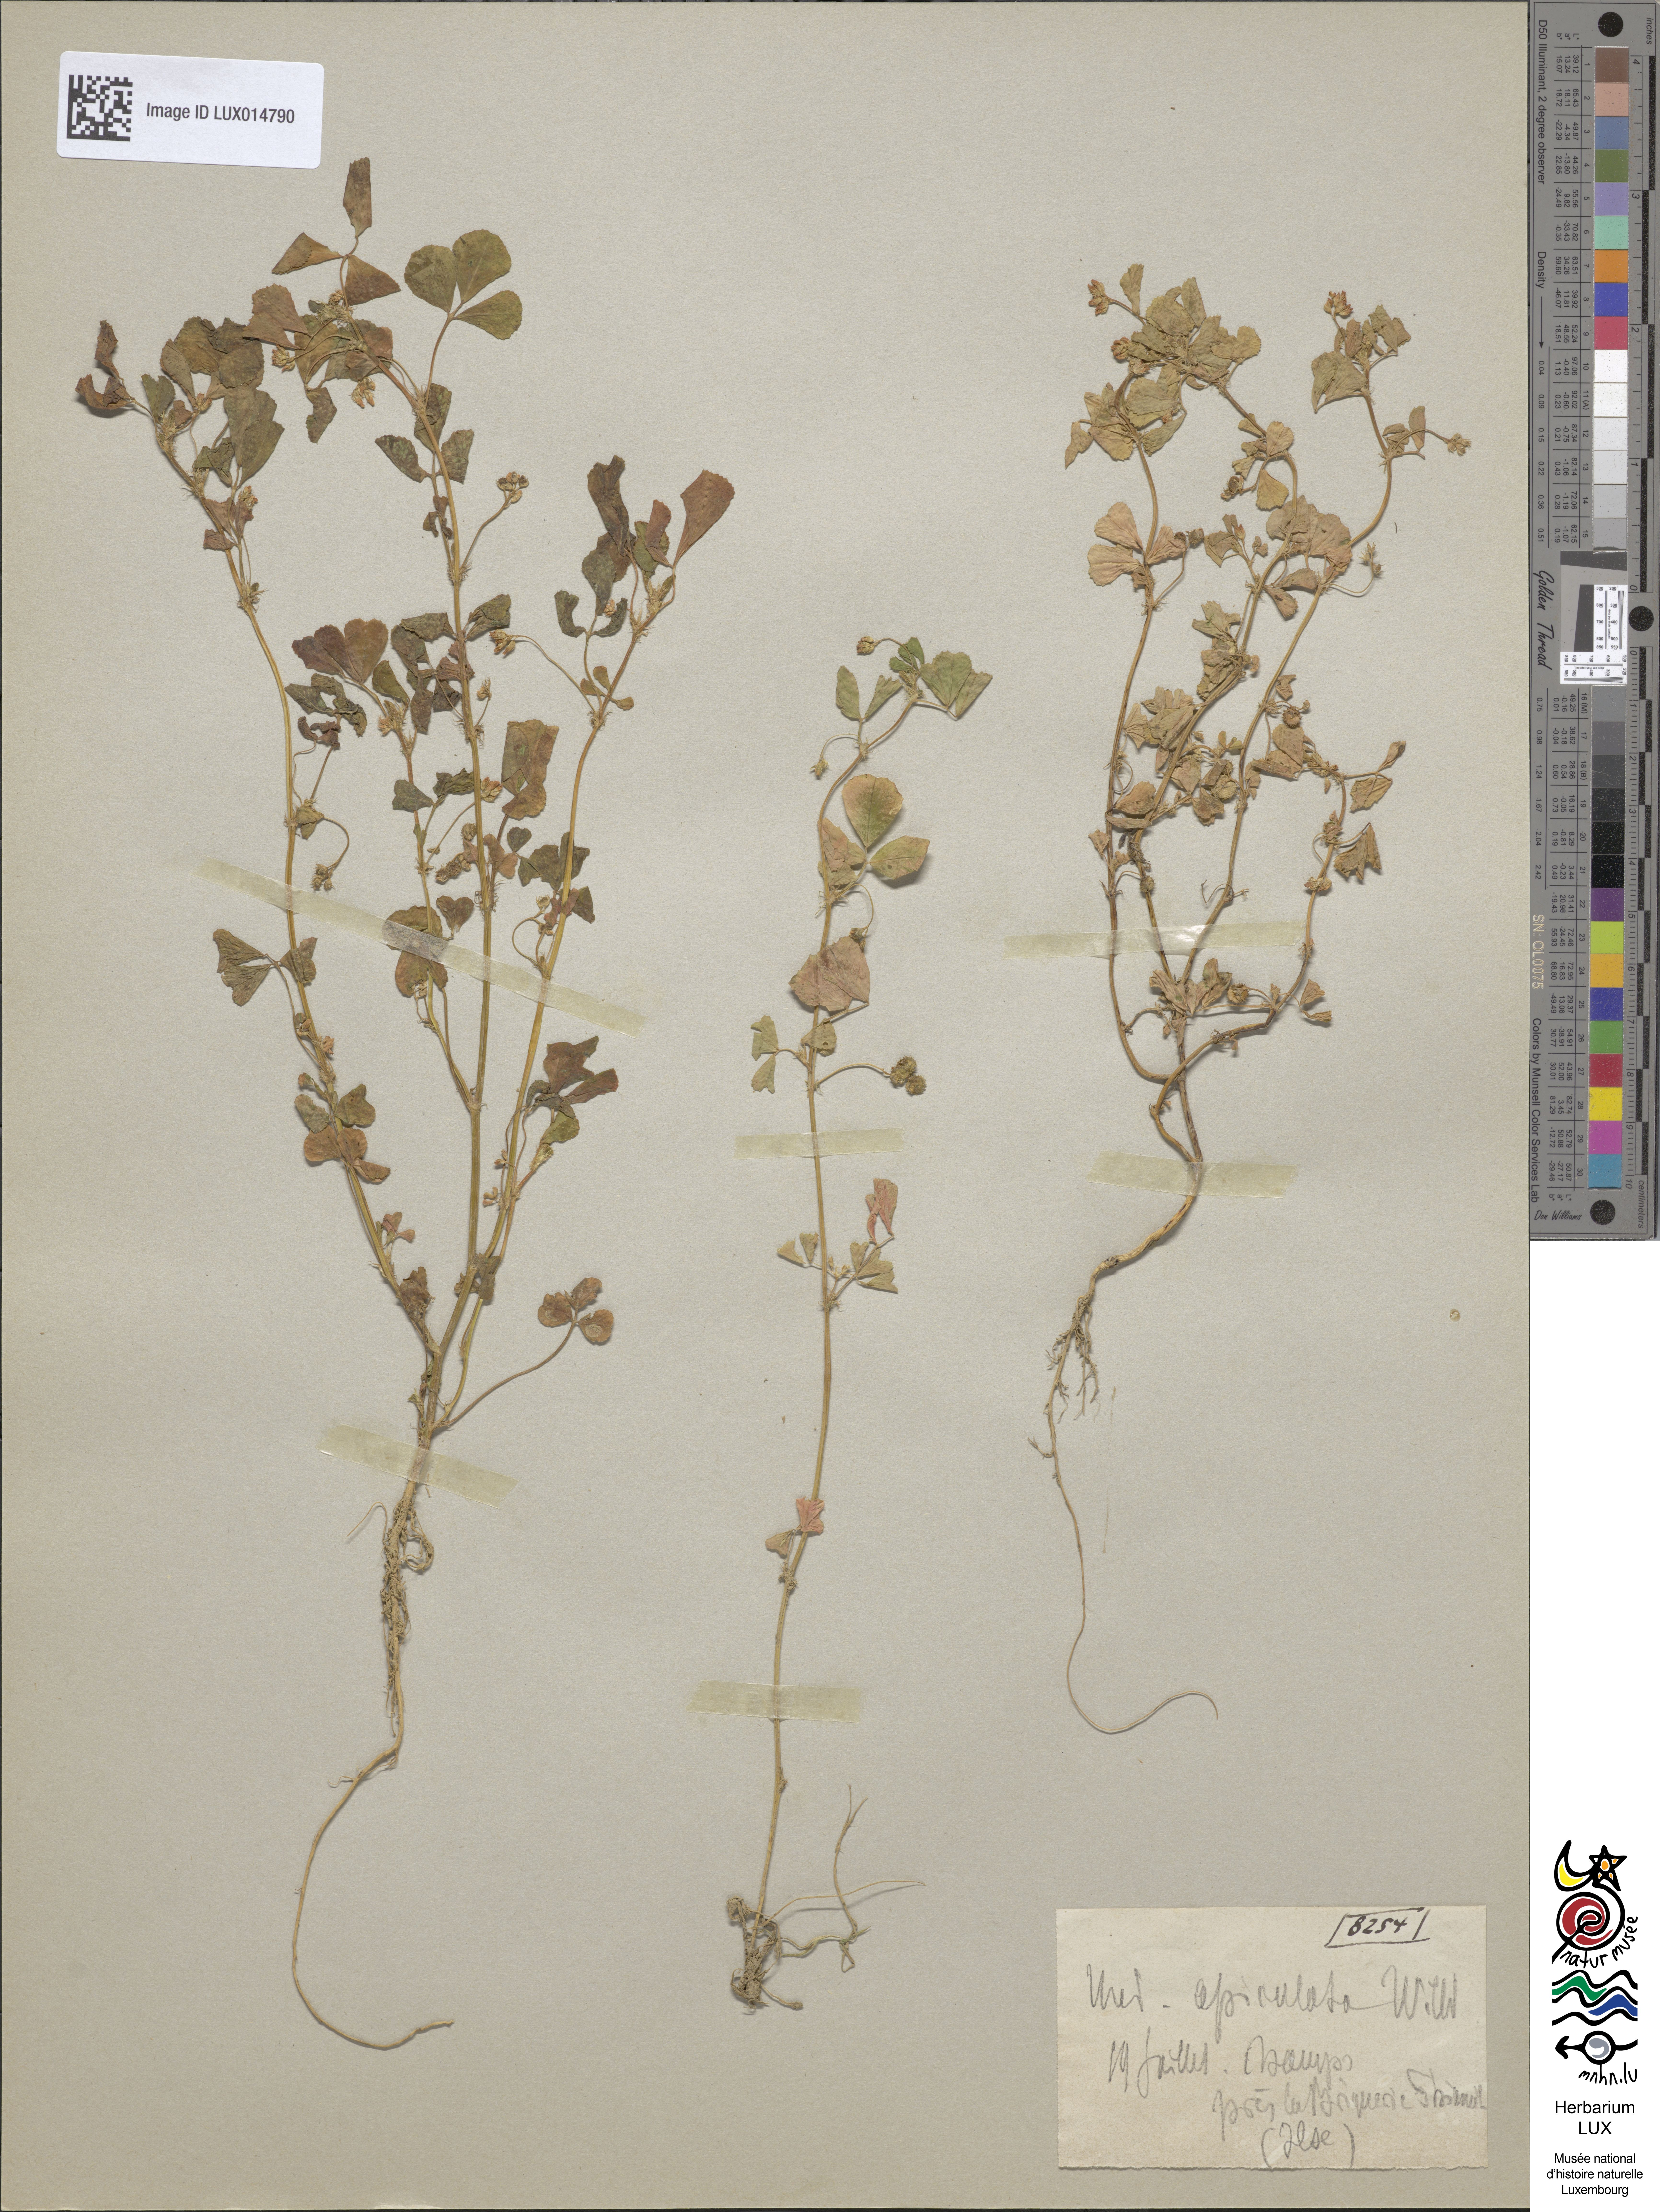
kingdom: Plantae
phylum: Tracheophyta
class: Magnoliopsida
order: Fabales
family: Fabaceae
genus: Medicago
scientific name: Medicago polymorpha
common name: Burclover
